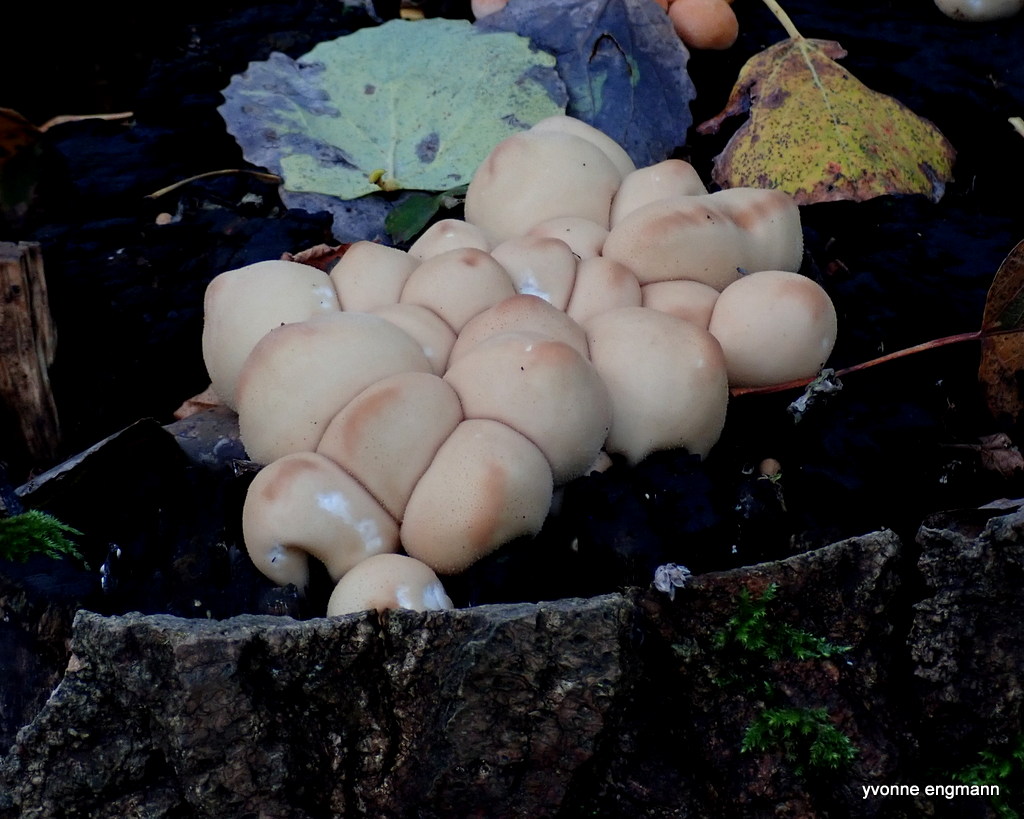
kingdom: Fungi
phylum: Basidiomycota
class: Agaricomycetes
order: Agaricales
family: Lycoperdaceae
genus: Apioperdon
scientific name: Apioperdon pyriforme
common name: pære-støvbold
